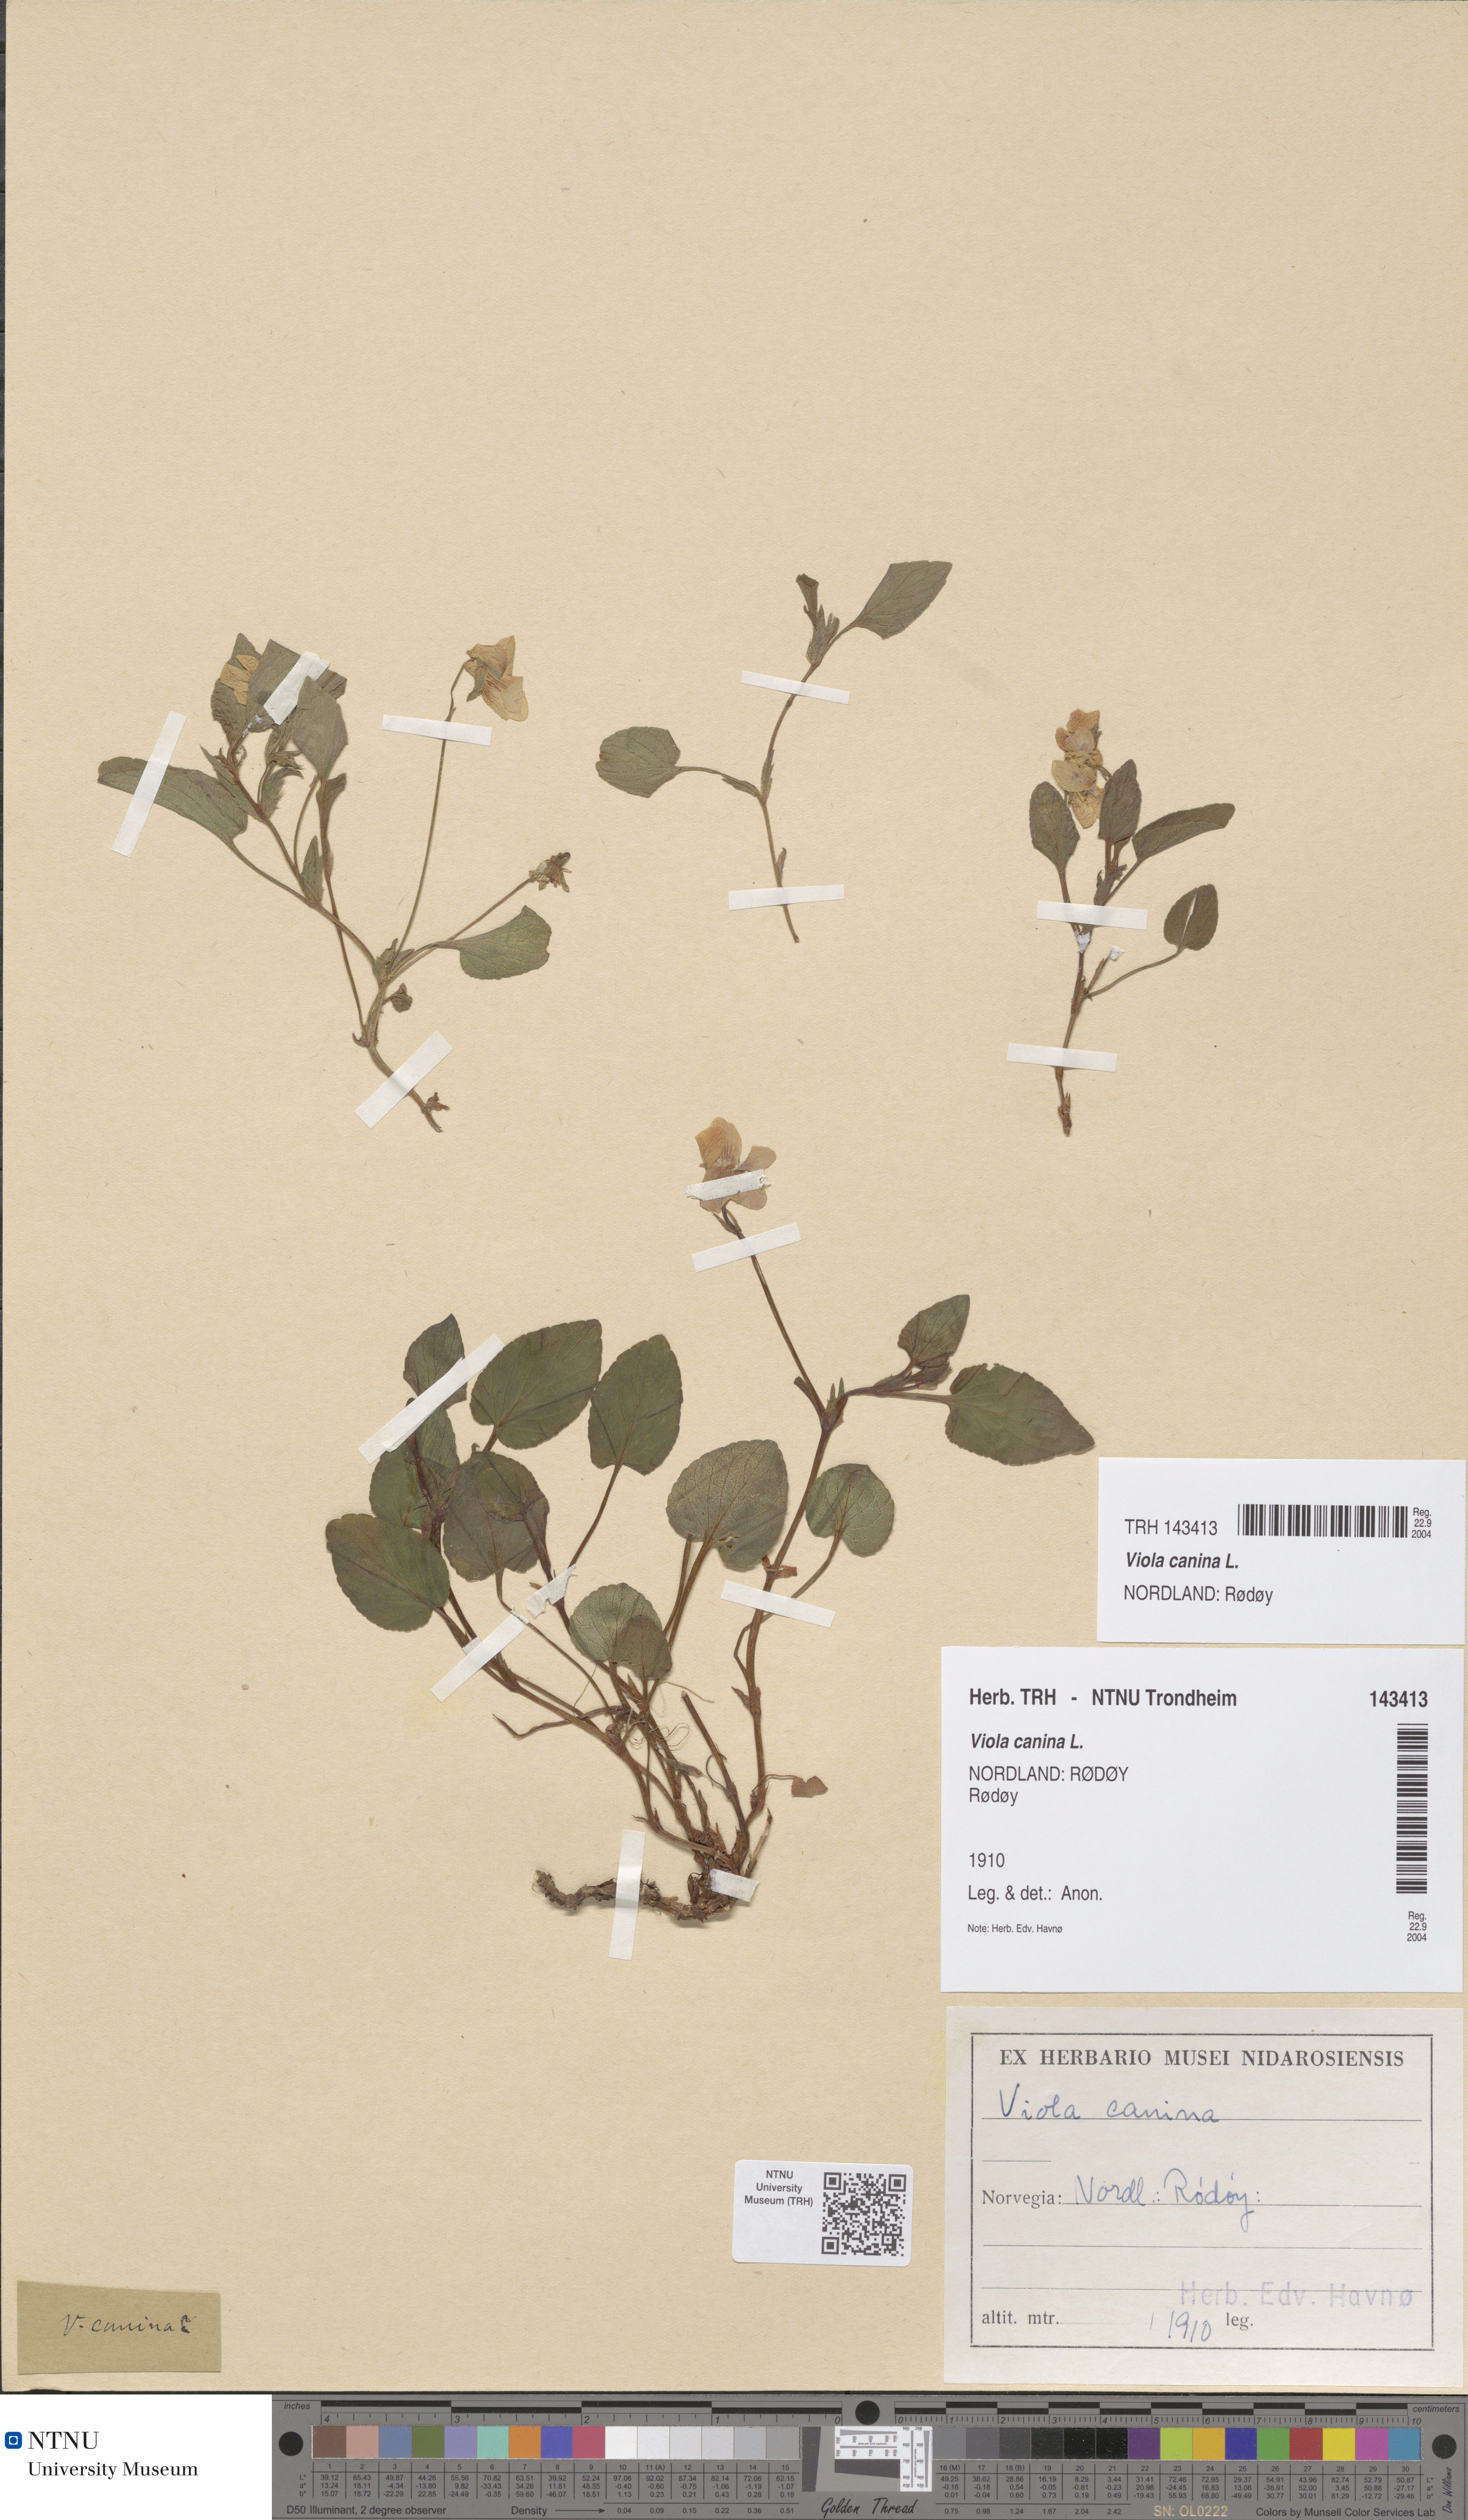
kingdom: Plantae
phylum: Tracheophyta
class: Magnoliopsida
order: Malpighiales
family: Violaceae
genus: Viola
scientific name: Viola canina
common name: Heath dog-violet
